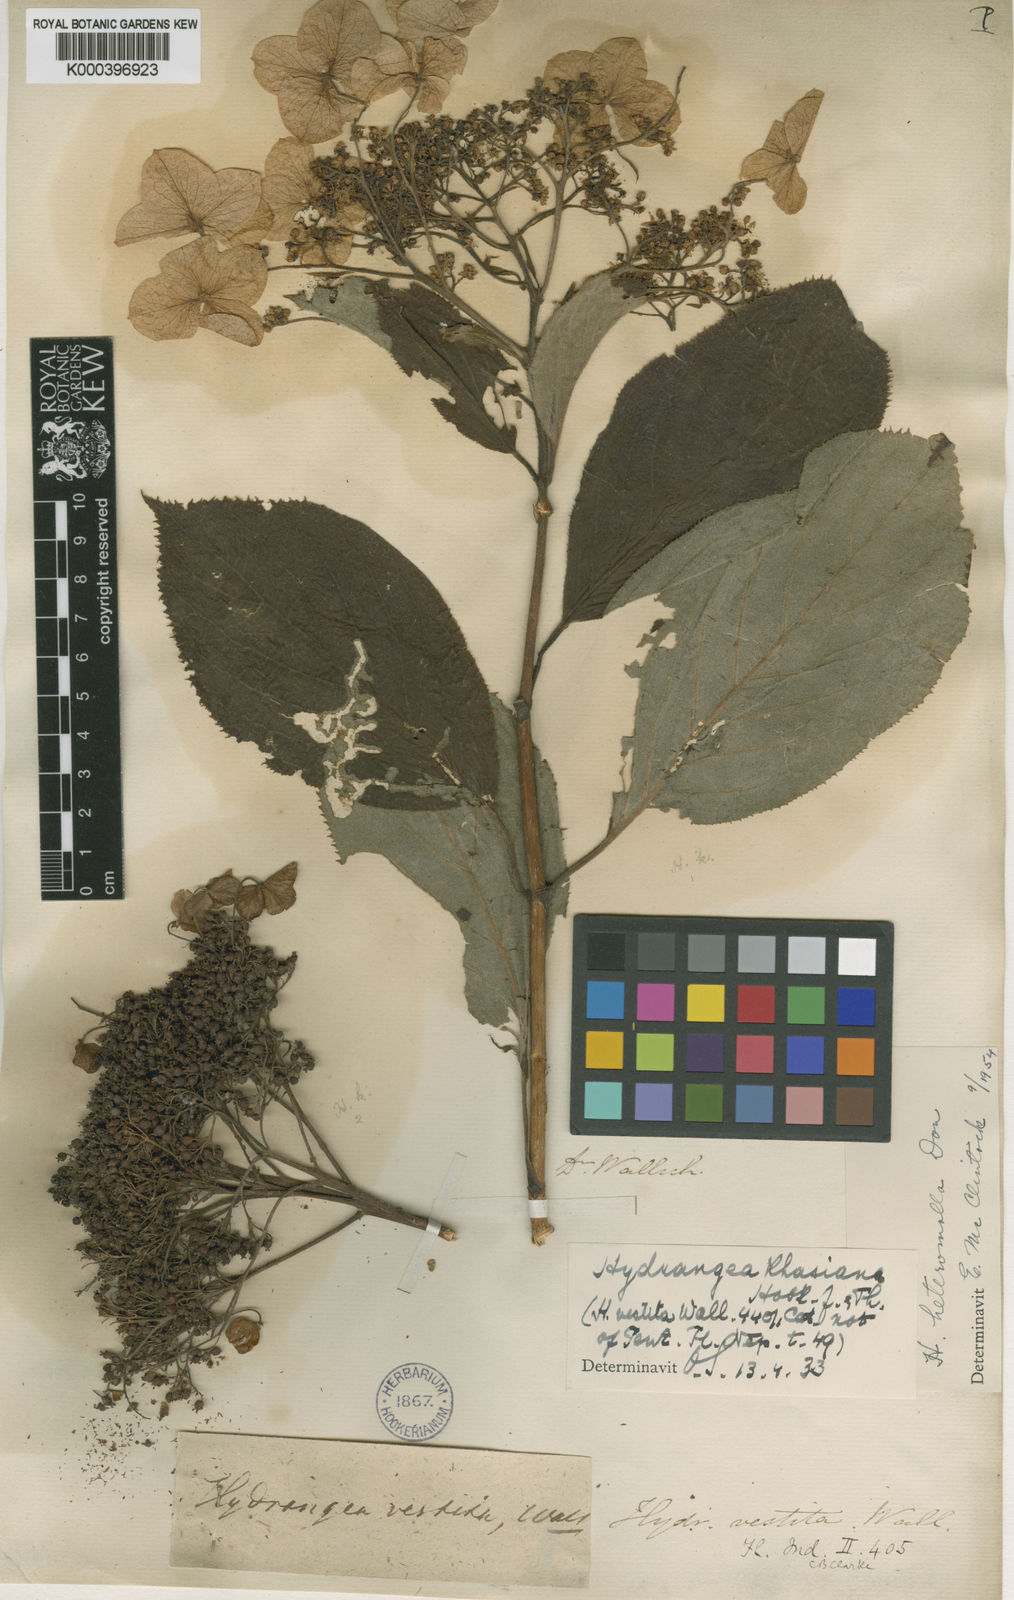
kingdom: Plantae
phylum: Tracheophyta
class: Magnoliopsida
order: Cornales
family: Hydrangeaceae
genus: Hydrangea
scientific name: Hydrangea heteromalla
